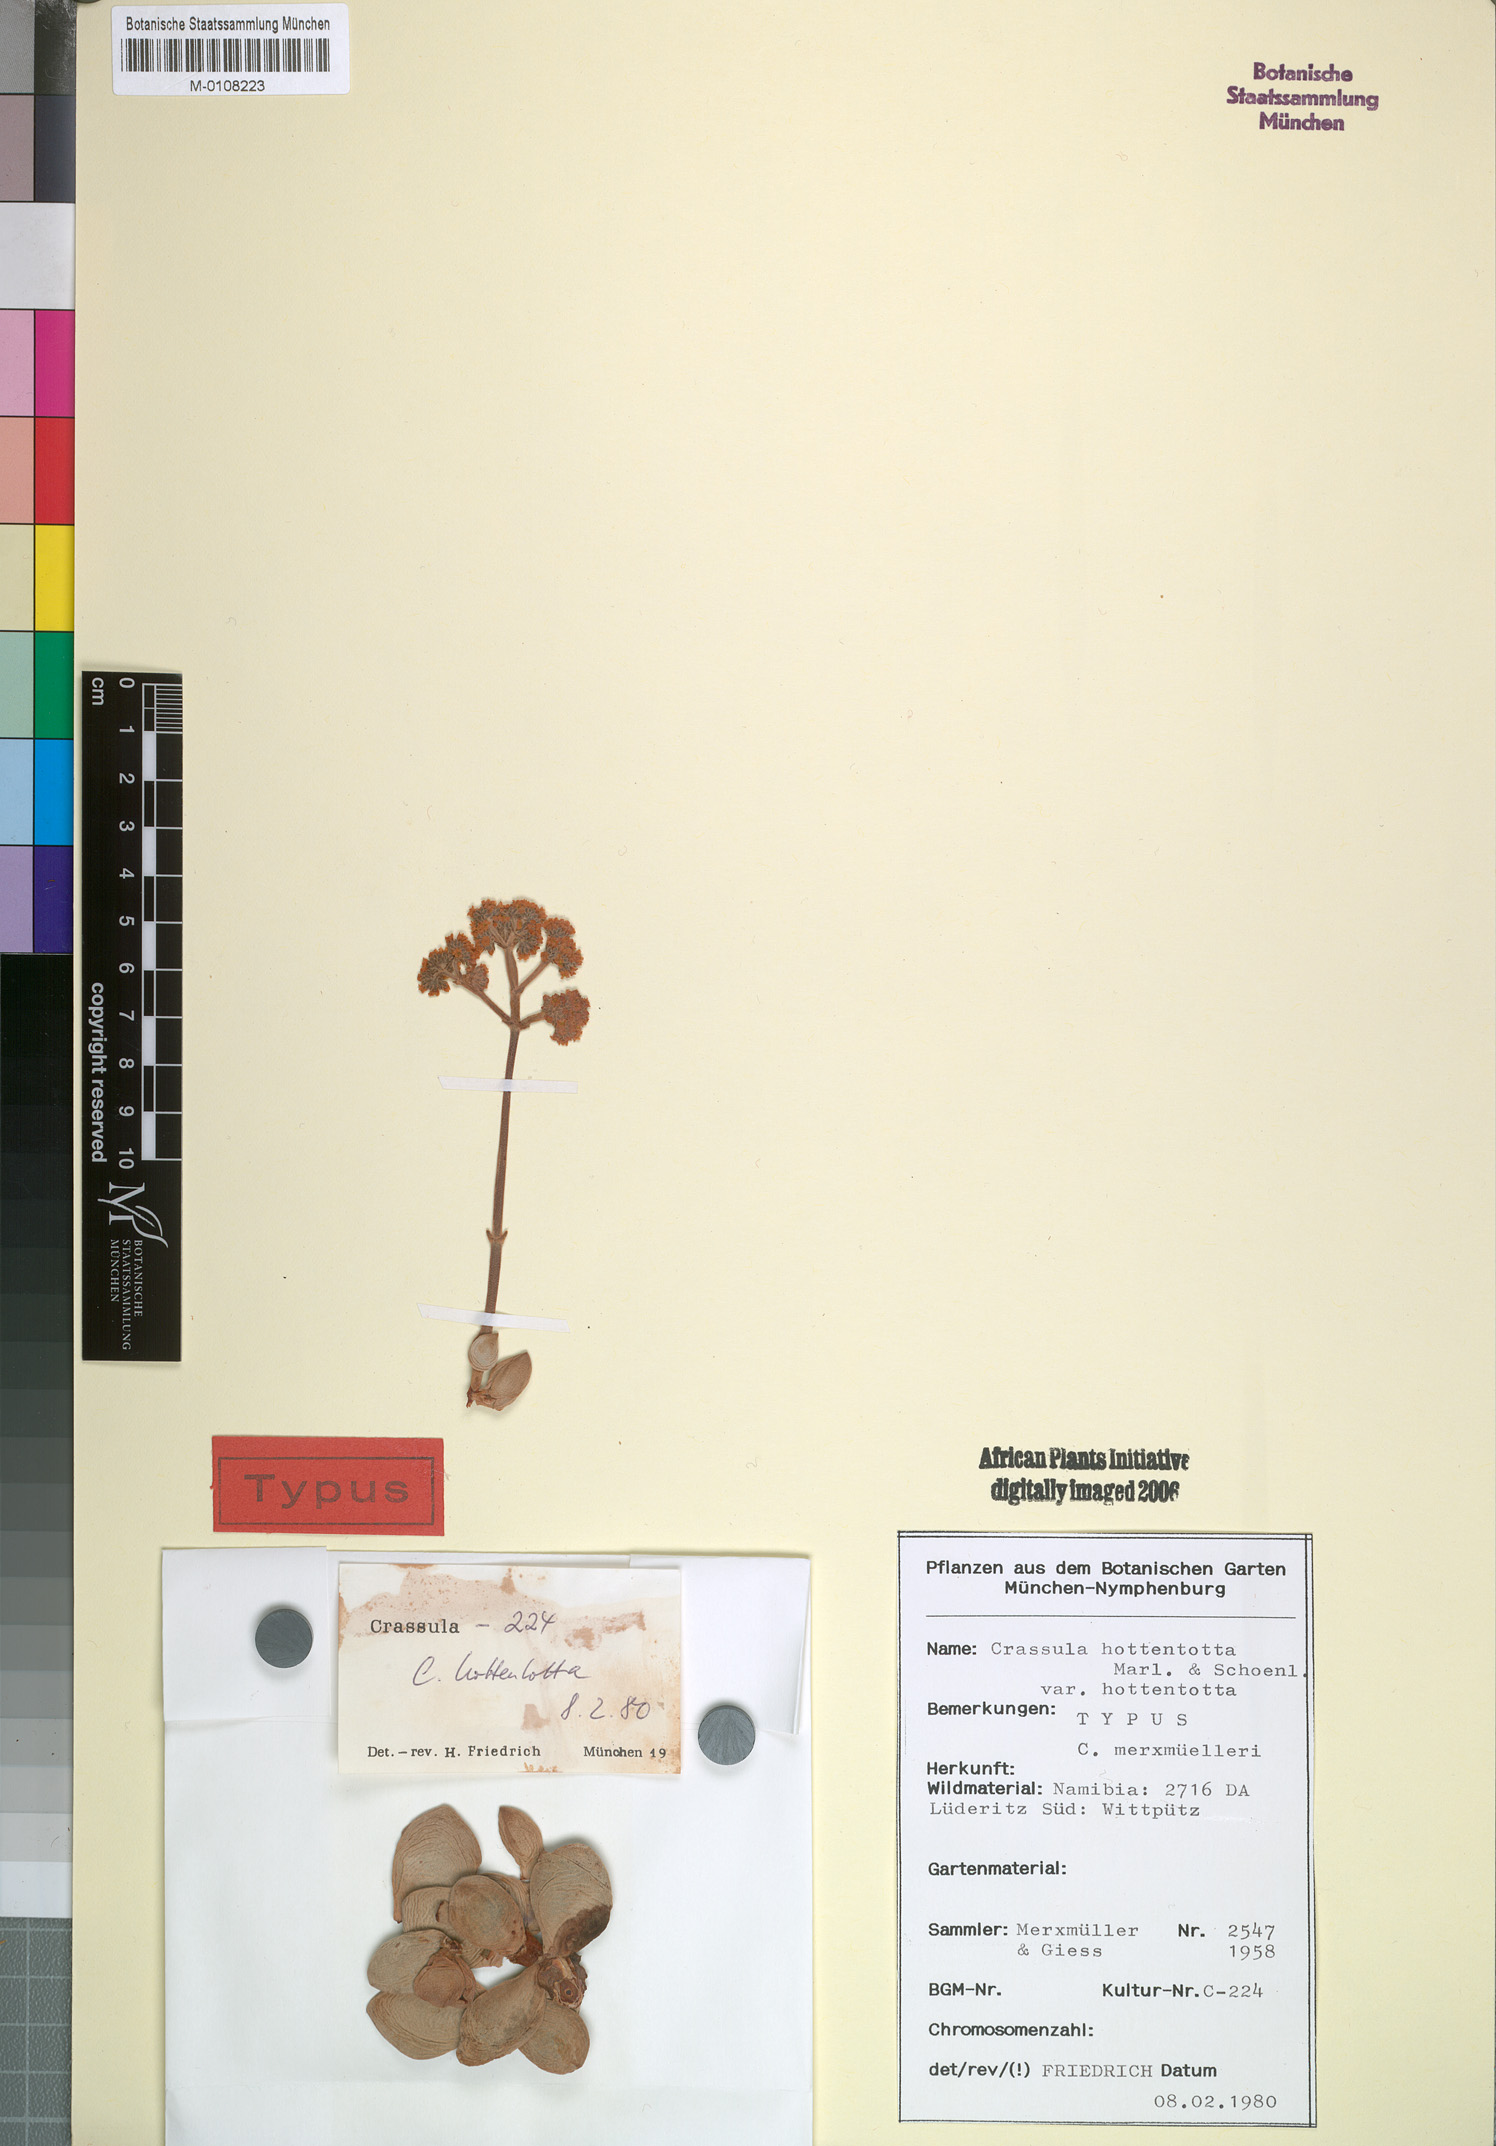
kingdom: Plantae
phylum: Tracheophyta
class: Magnoliopsida
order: Saxifragales
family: Crassulaceae
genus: Crassula
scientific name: Crassula sericea
